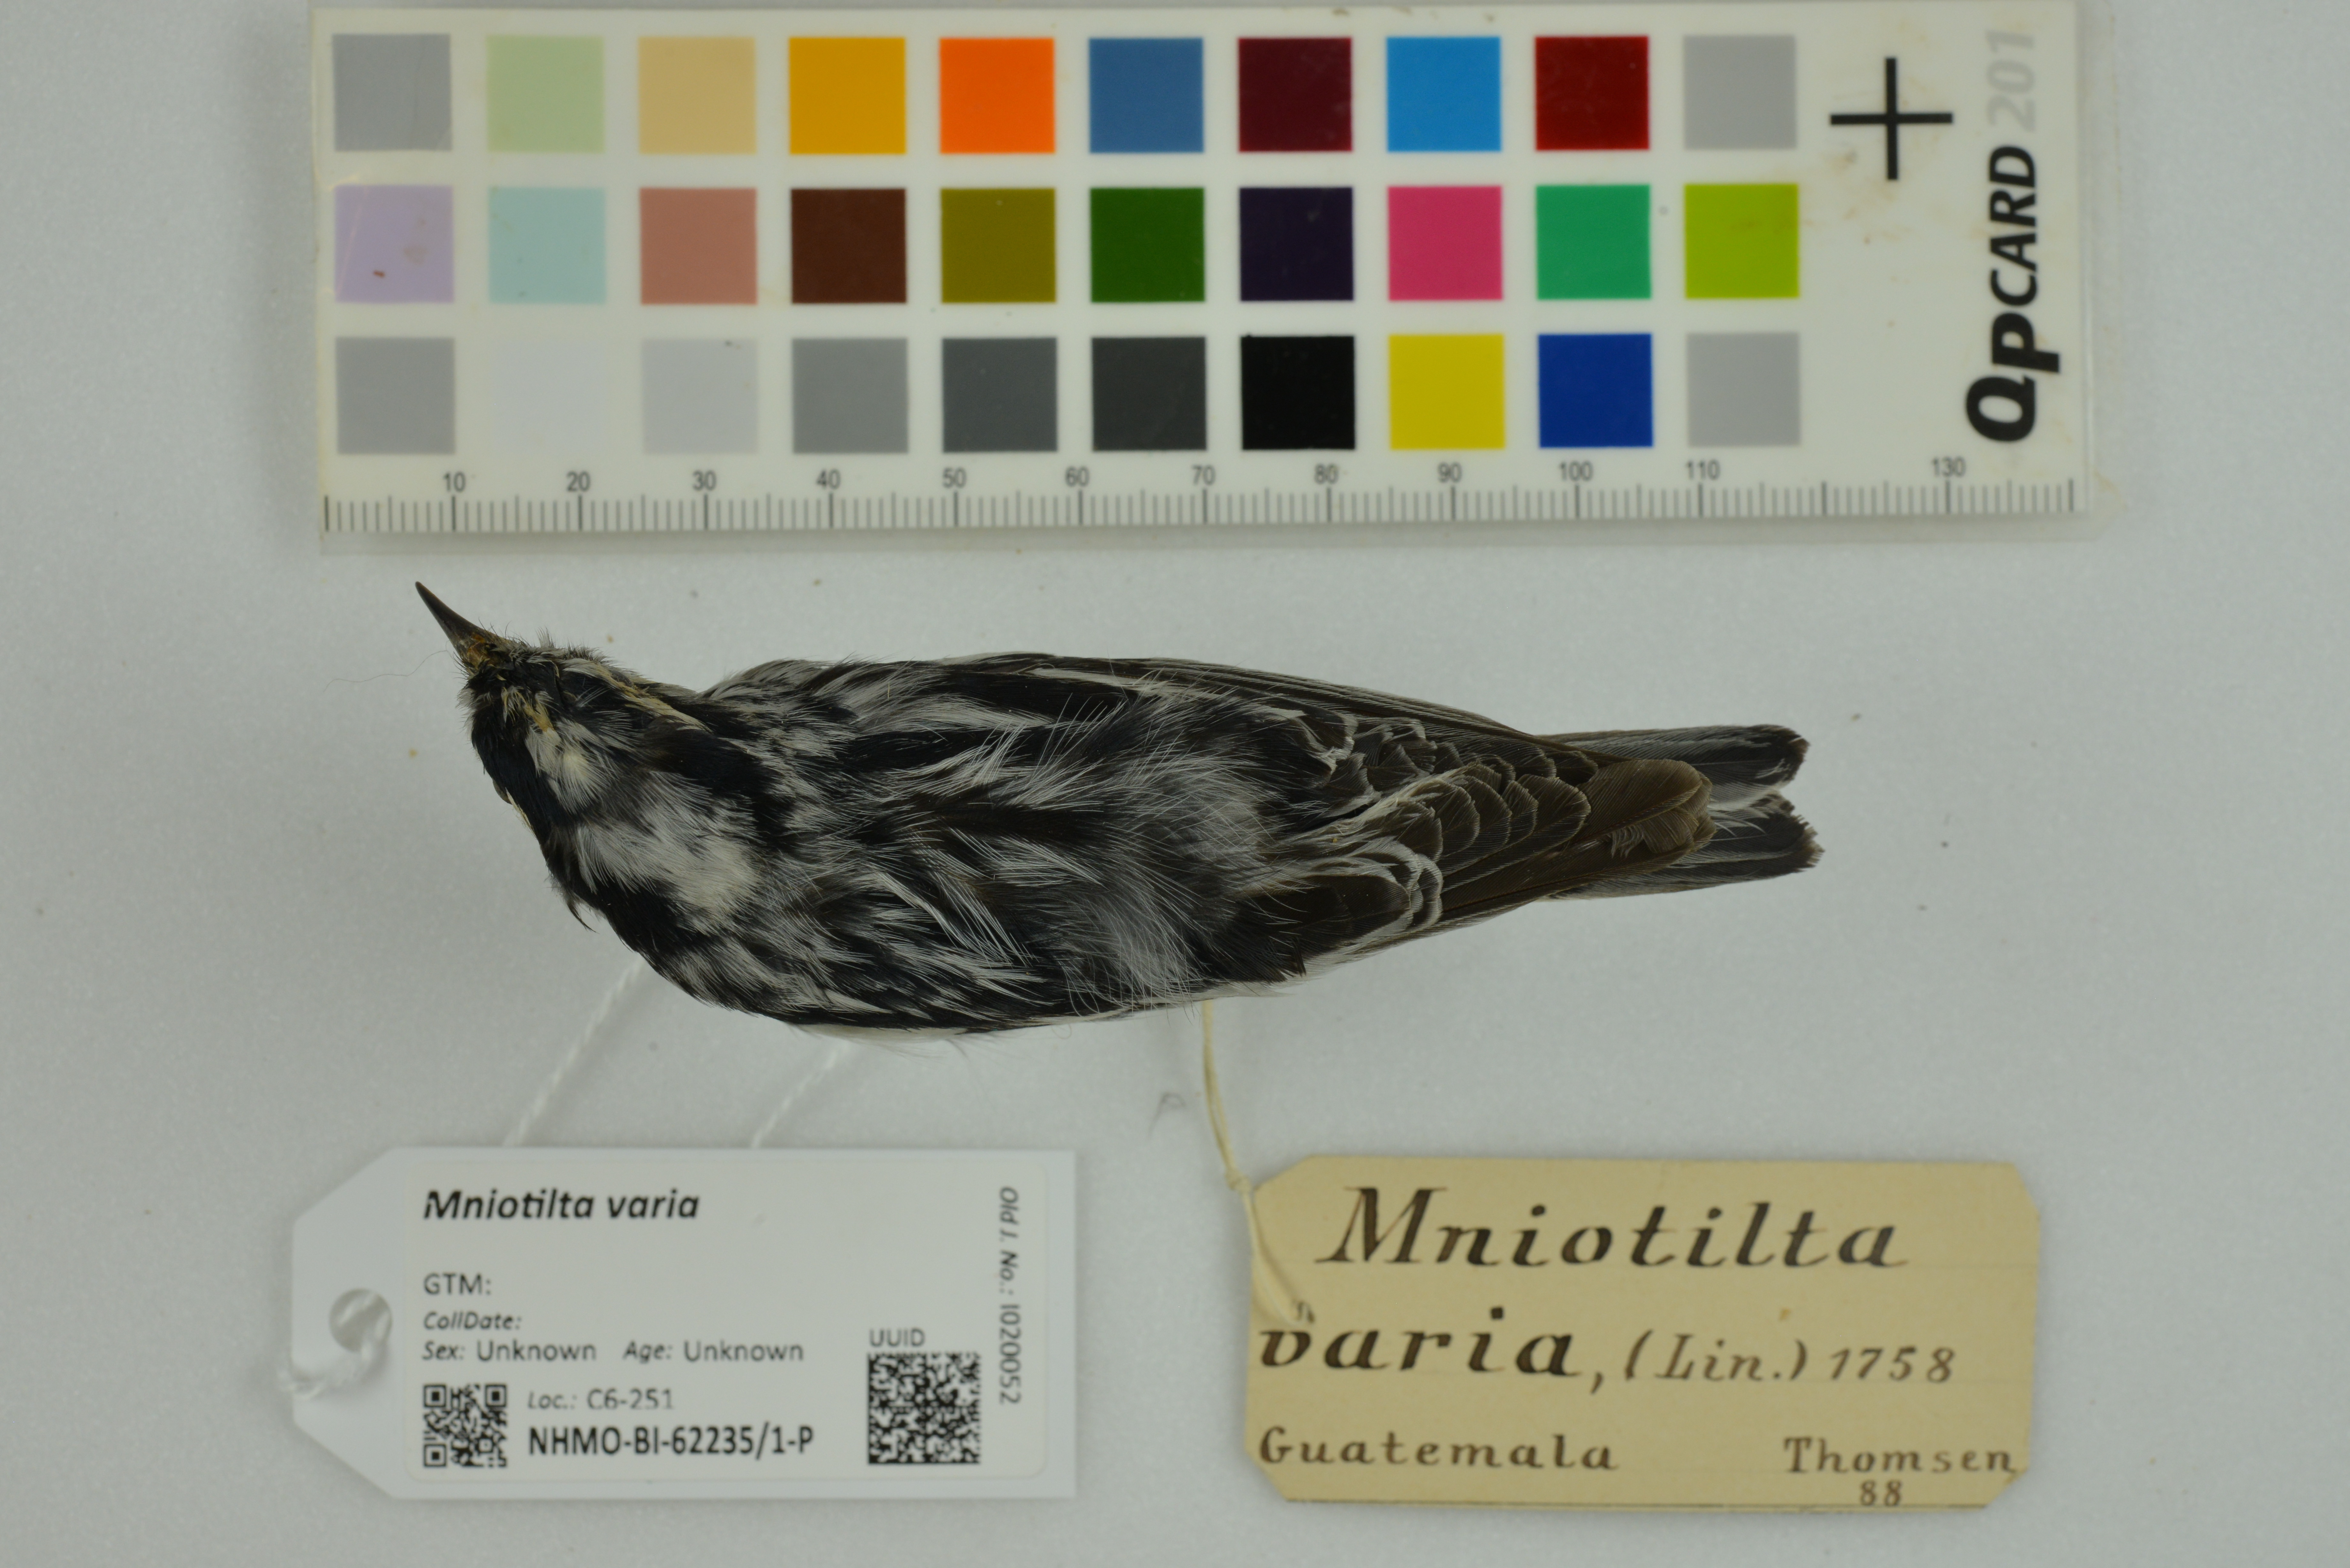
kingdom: Animalia
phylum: Chordata
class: Aves
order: Passeriformes
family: Parulidae
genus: Mniotilta
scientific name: Mniotilta varia
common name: Black-and-white warbler
